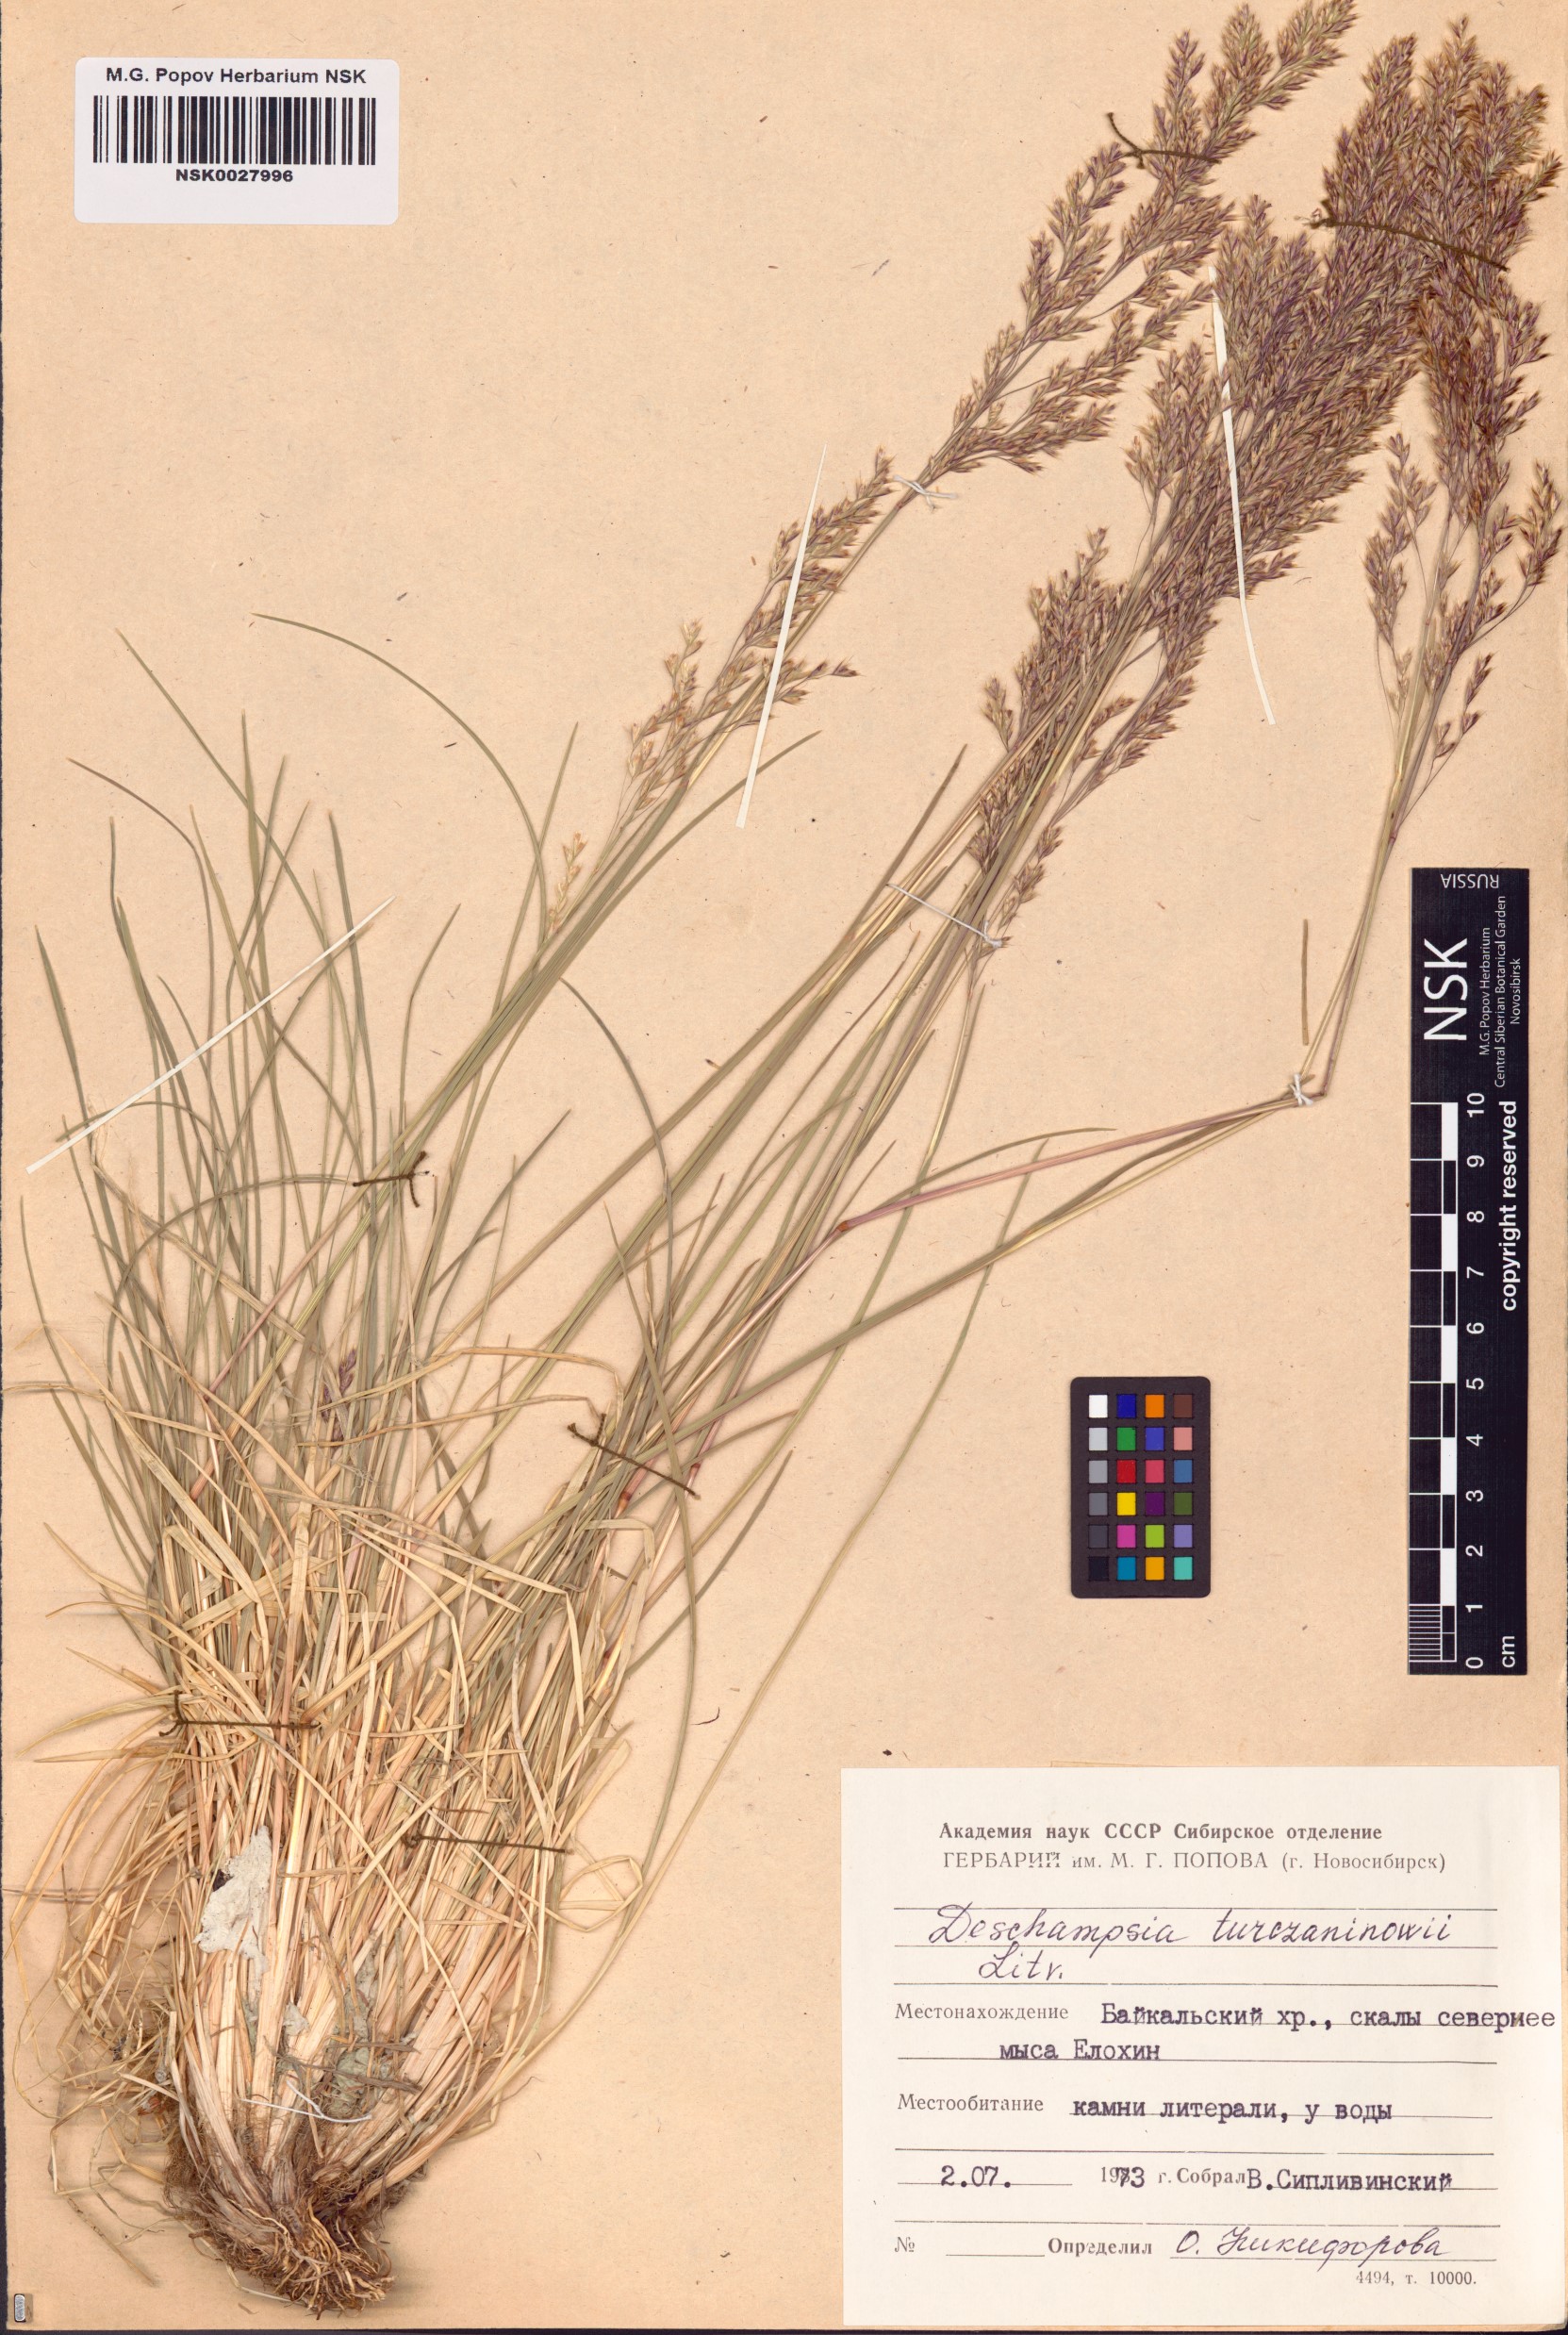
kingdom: Plantae
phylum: Tracheophyta
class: Liliopsida
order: Poales
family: Poaceae
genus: Deschampsia
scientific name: Deschampsia cespitosa
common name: Tufted hair-grass
